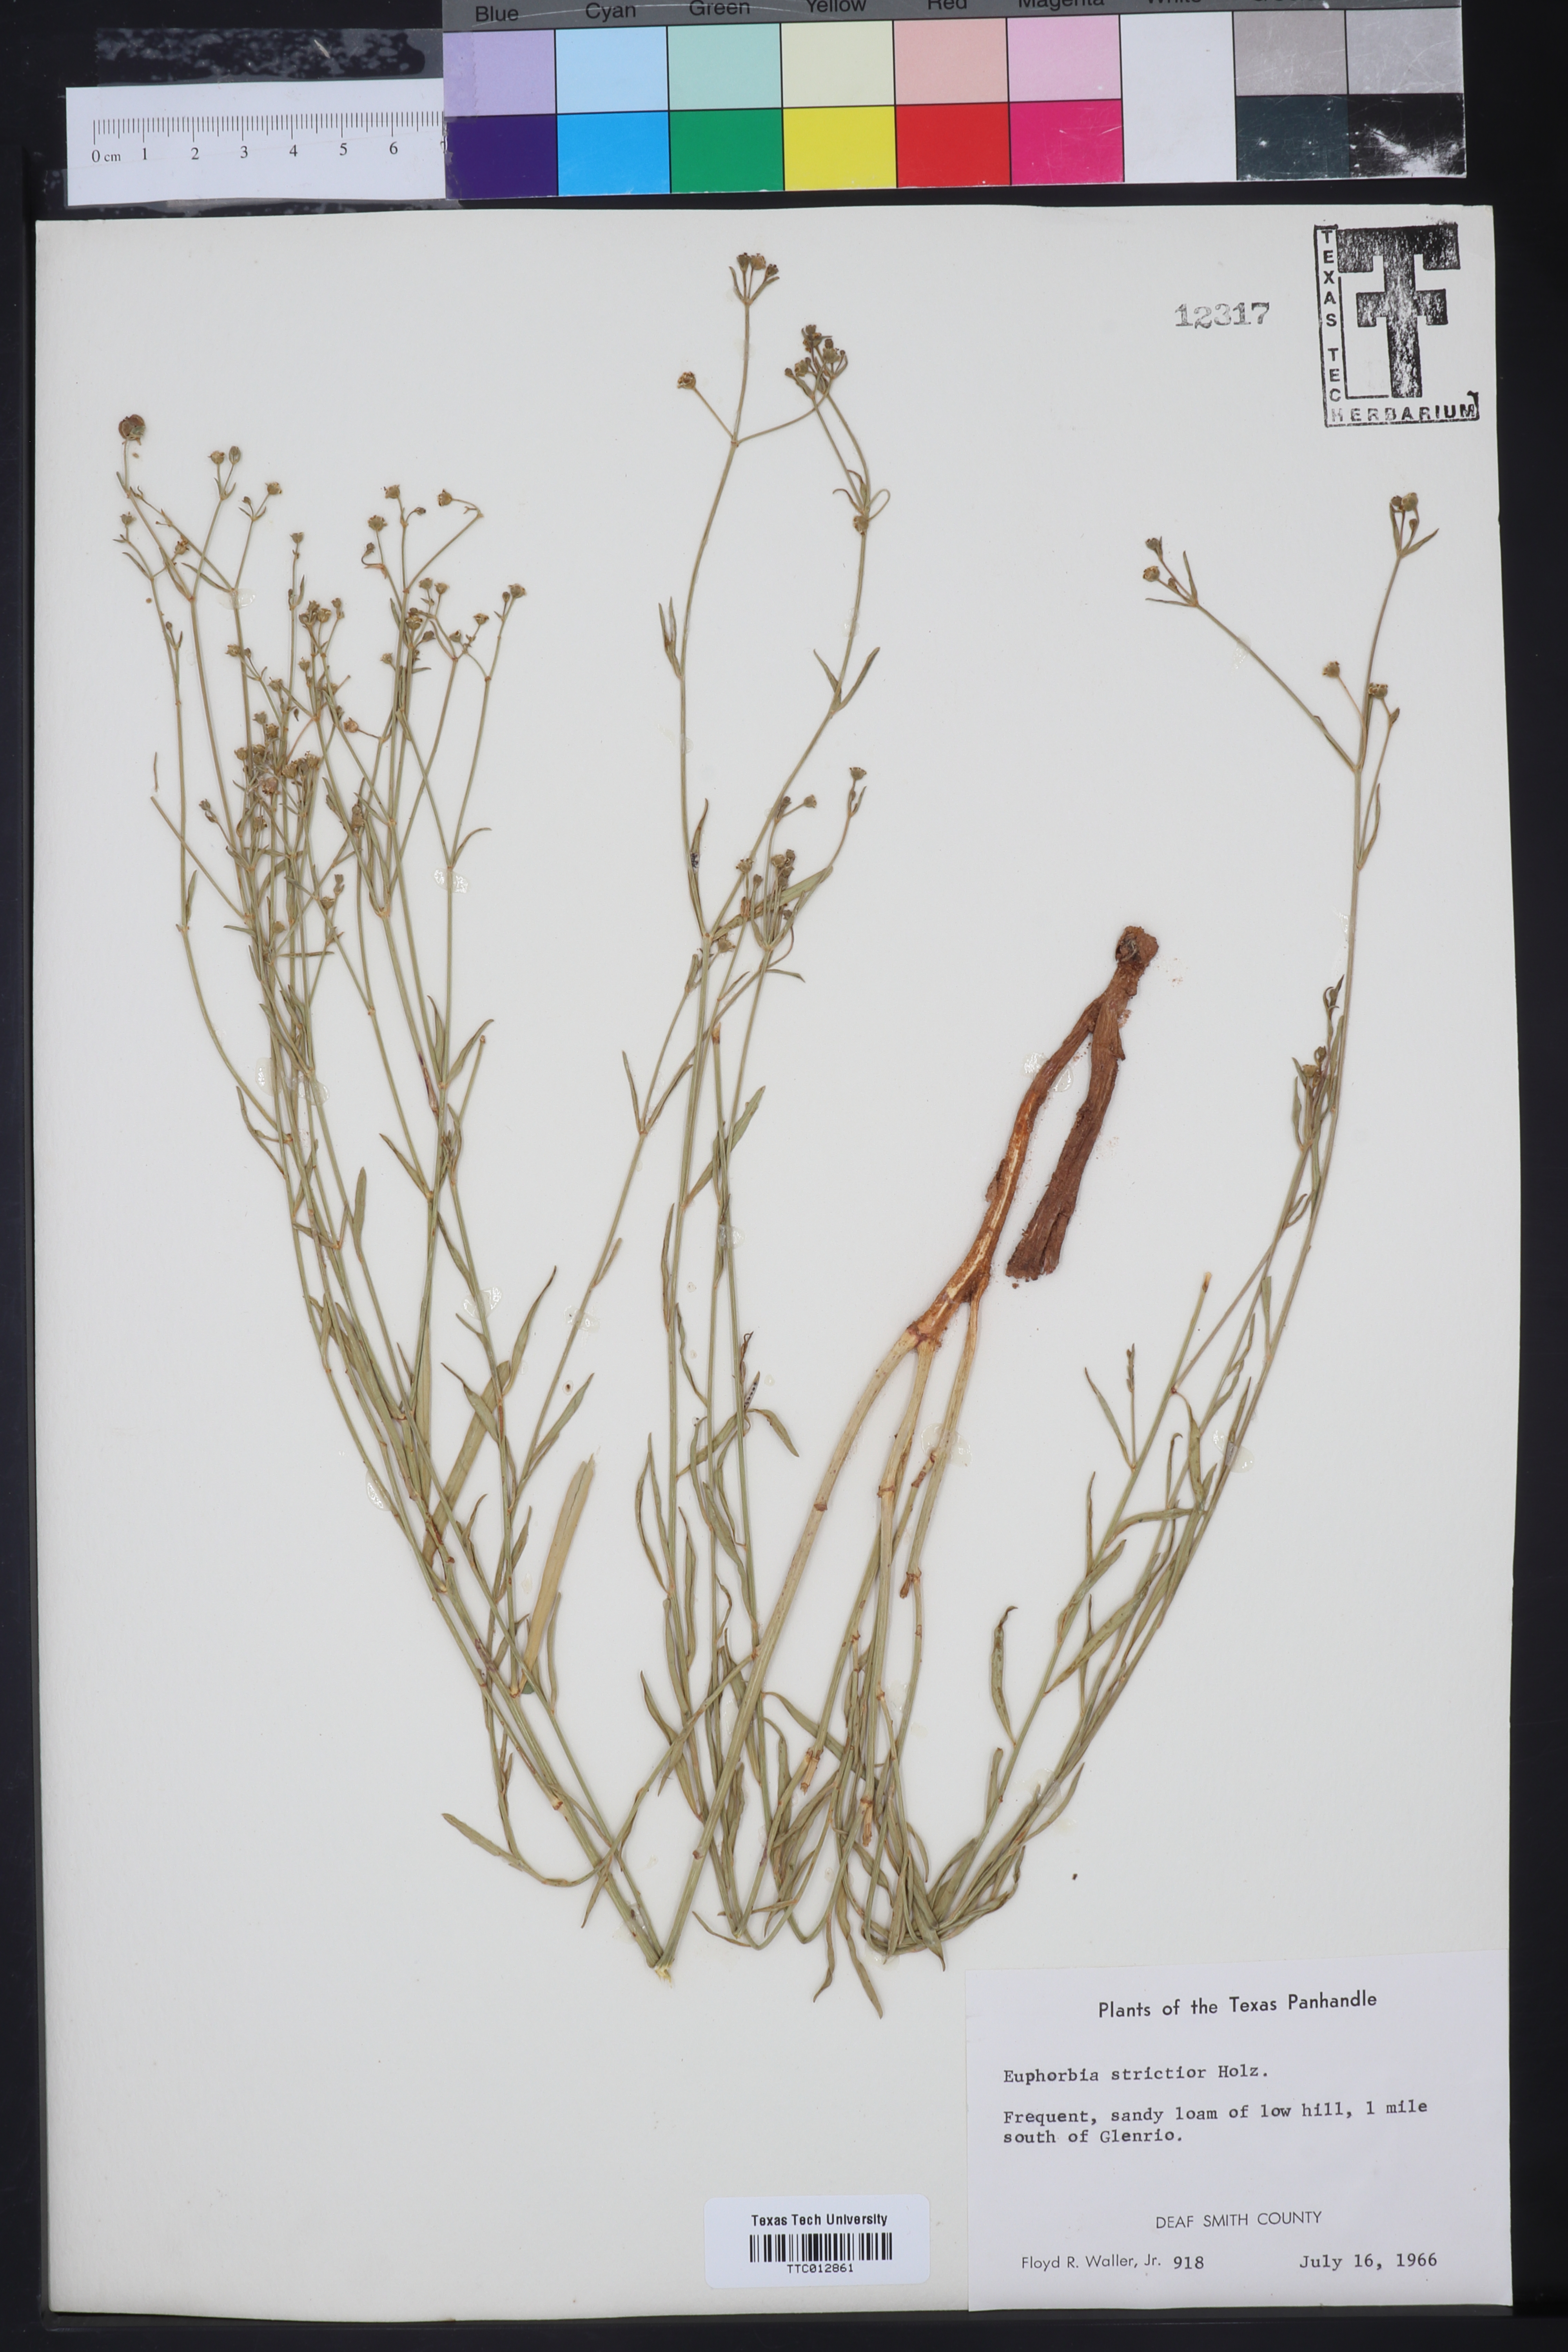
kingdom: Plantae
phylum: Tracheophyta
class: Magnoliopsida
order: Malpighiales
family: Euphorbiaceae
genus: Euphorbia
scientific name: Euphorbia strictior
